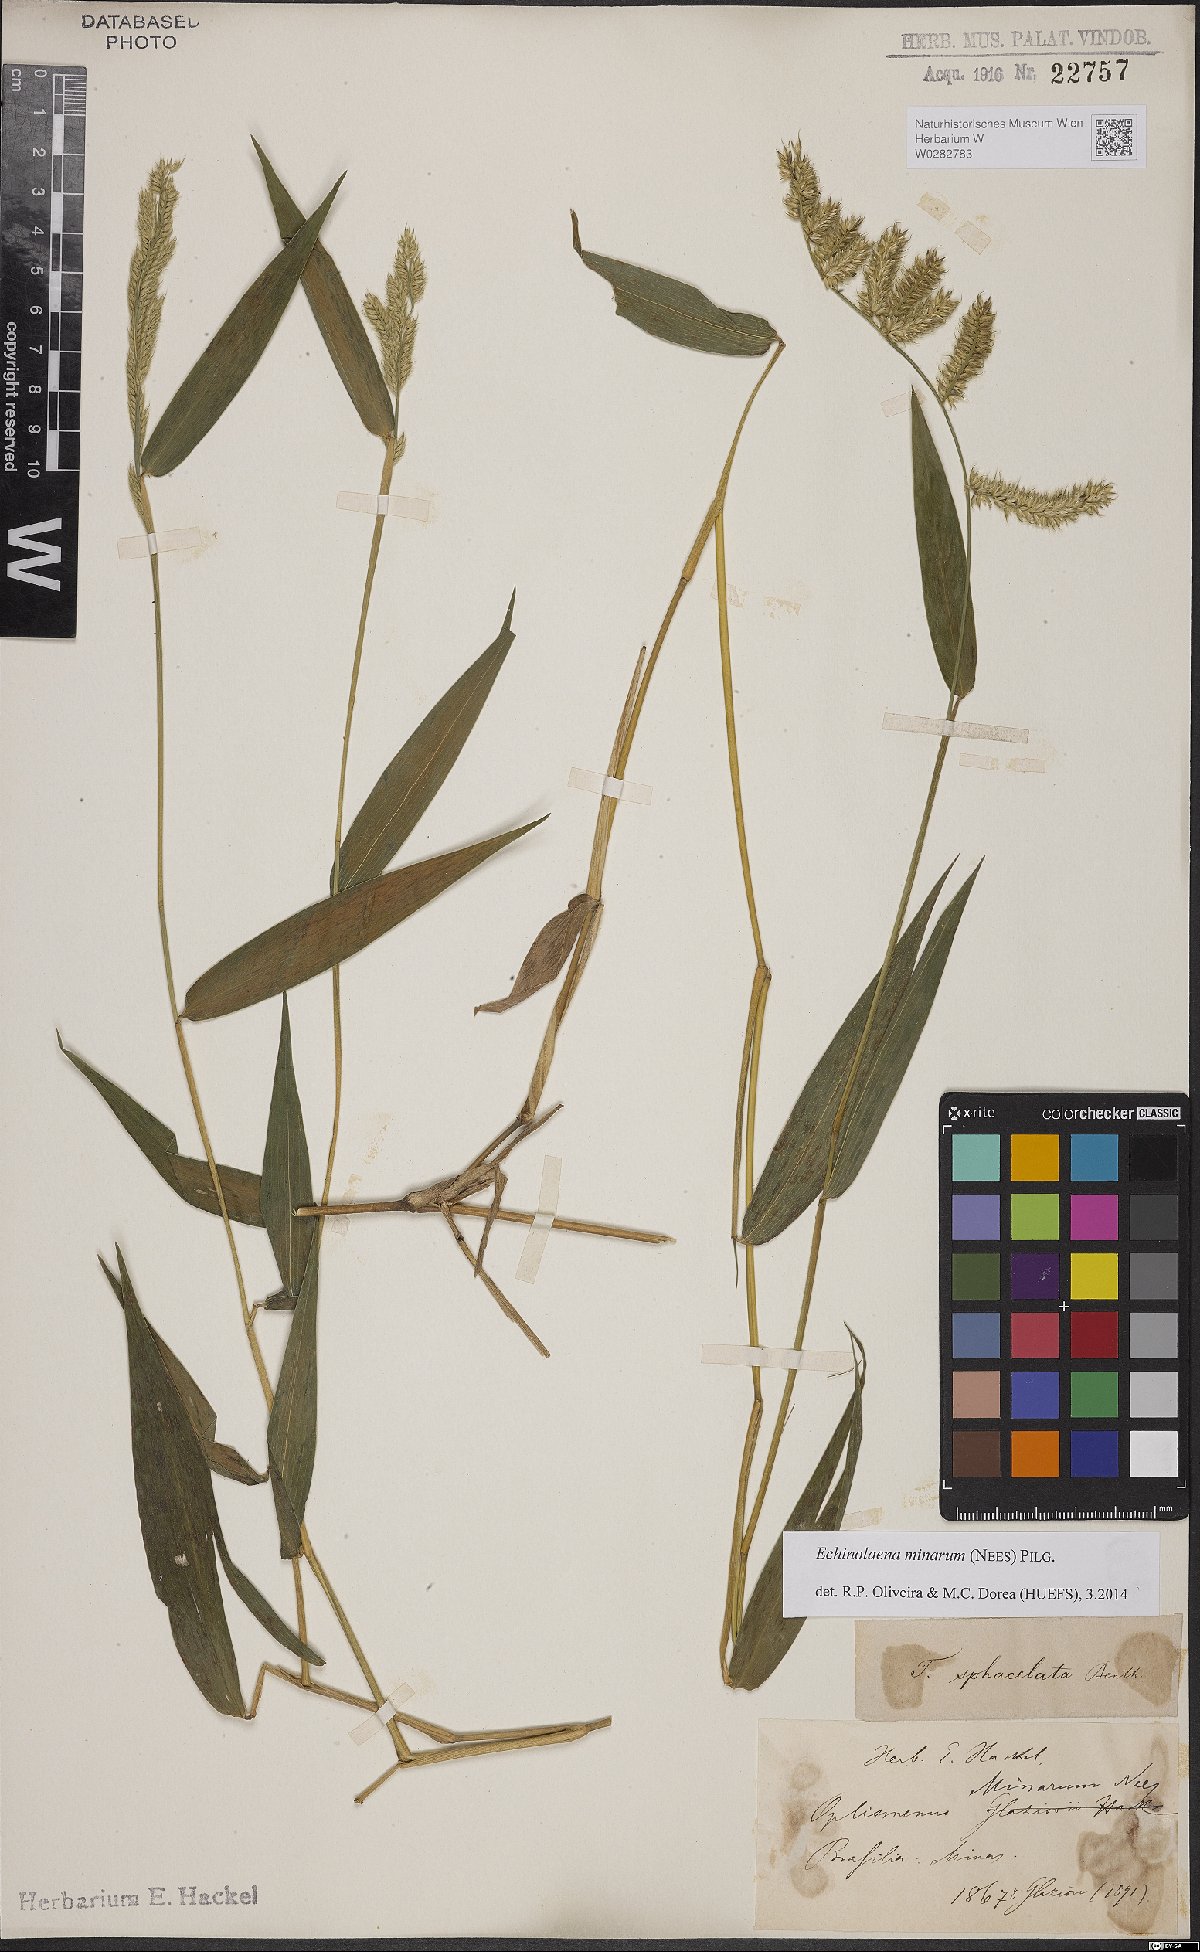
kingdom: Plantae
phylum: Tracheophyta
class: Liliopsida
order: Poales
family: Poaceae
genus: Oedochloa
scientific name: Oedochloa minarum
